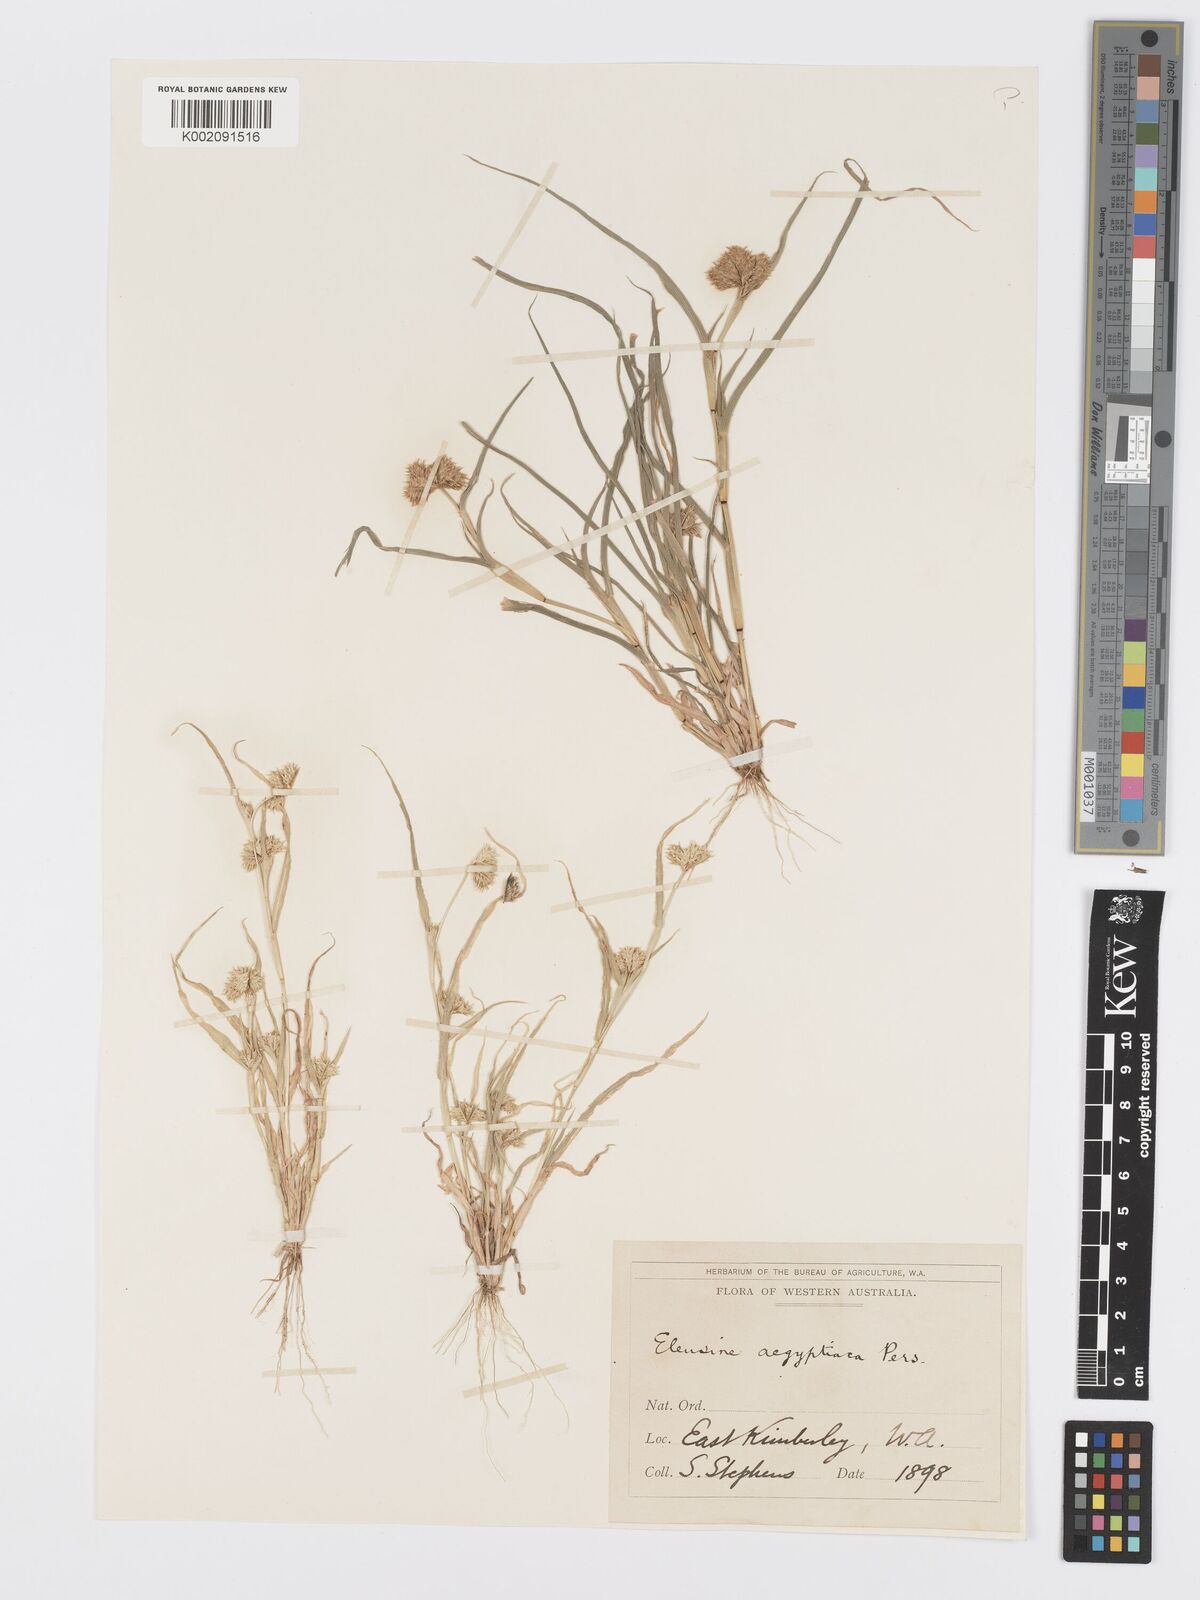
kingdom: Plantae
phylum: Tracheophyta
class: Liliopsida
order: Poales
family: Poaceae
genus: Dactyloctenium
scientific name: Dactyloctenium radulans
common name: Button-grass
